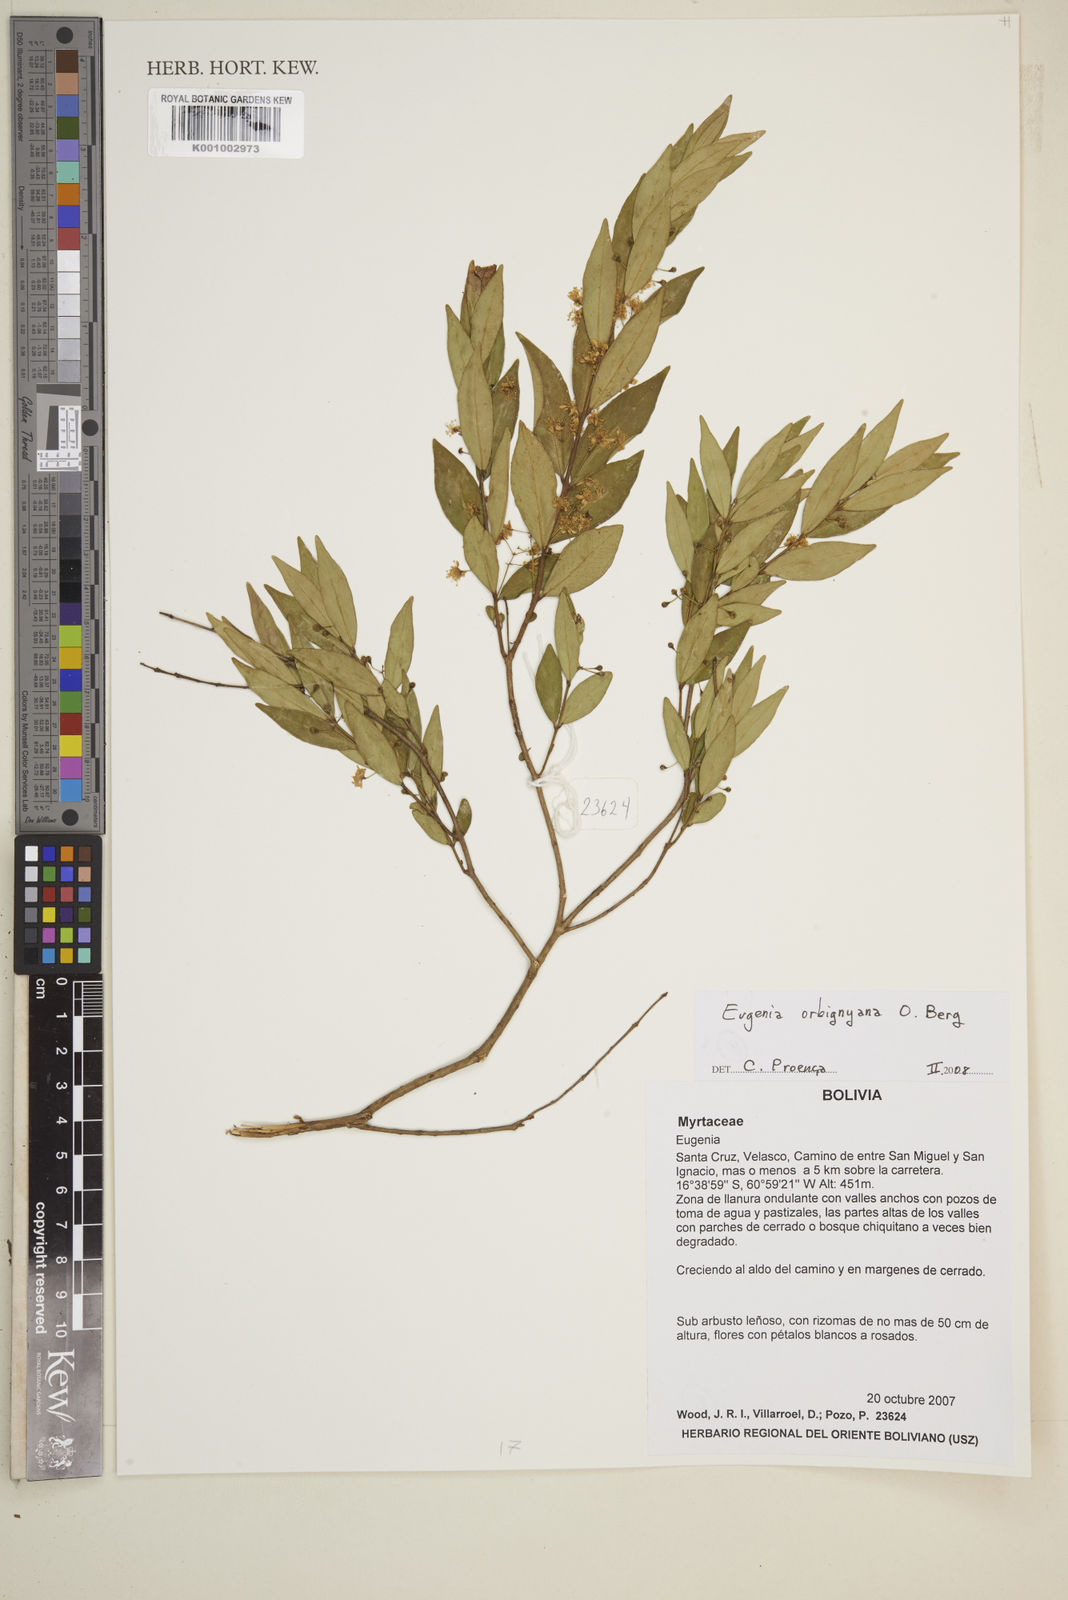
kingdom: Plantae
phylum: Tracheophyta
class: Magnoliopsida
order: Myrtales
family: Myrtaceae
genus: Eugenia
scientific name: Eugenia orbignyana
